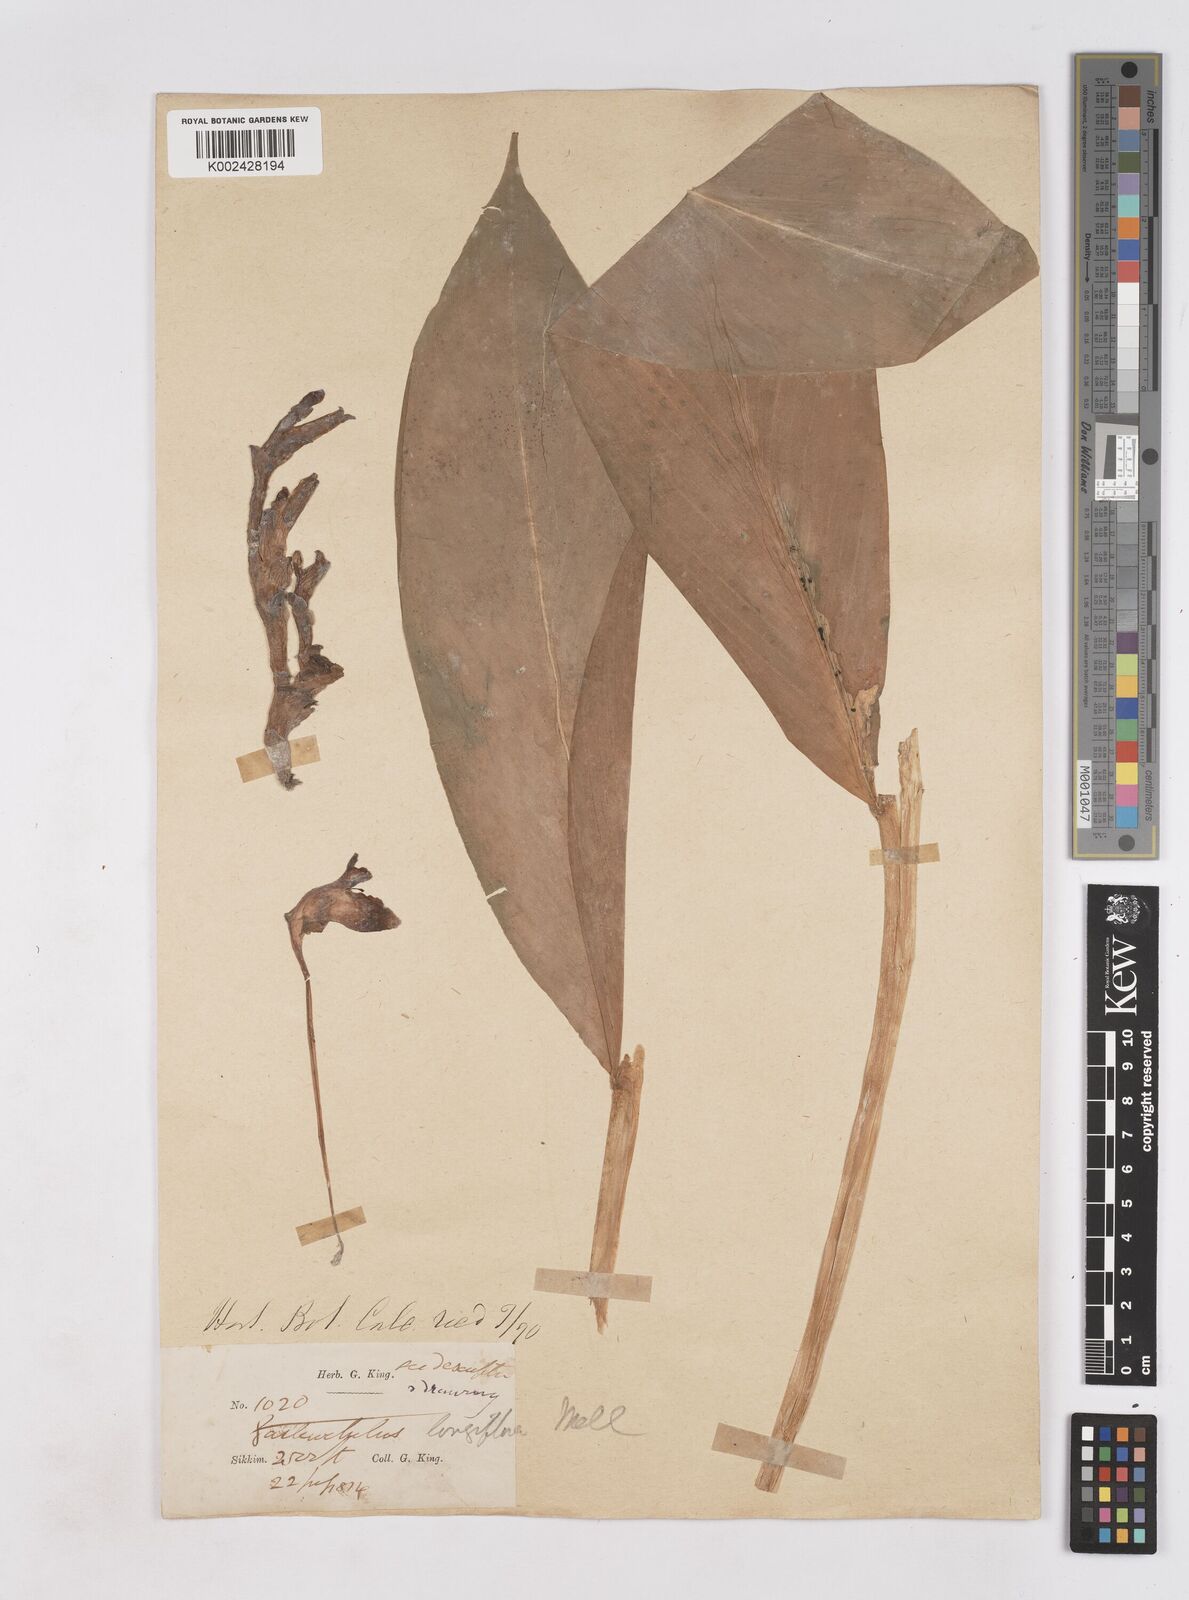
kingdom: Plantae
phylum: Tracheophyta
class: Liliopsida
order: Zingiberales
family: Zingiberaceae
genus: Boesenbergia
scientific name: Boesenbergia longiflora
